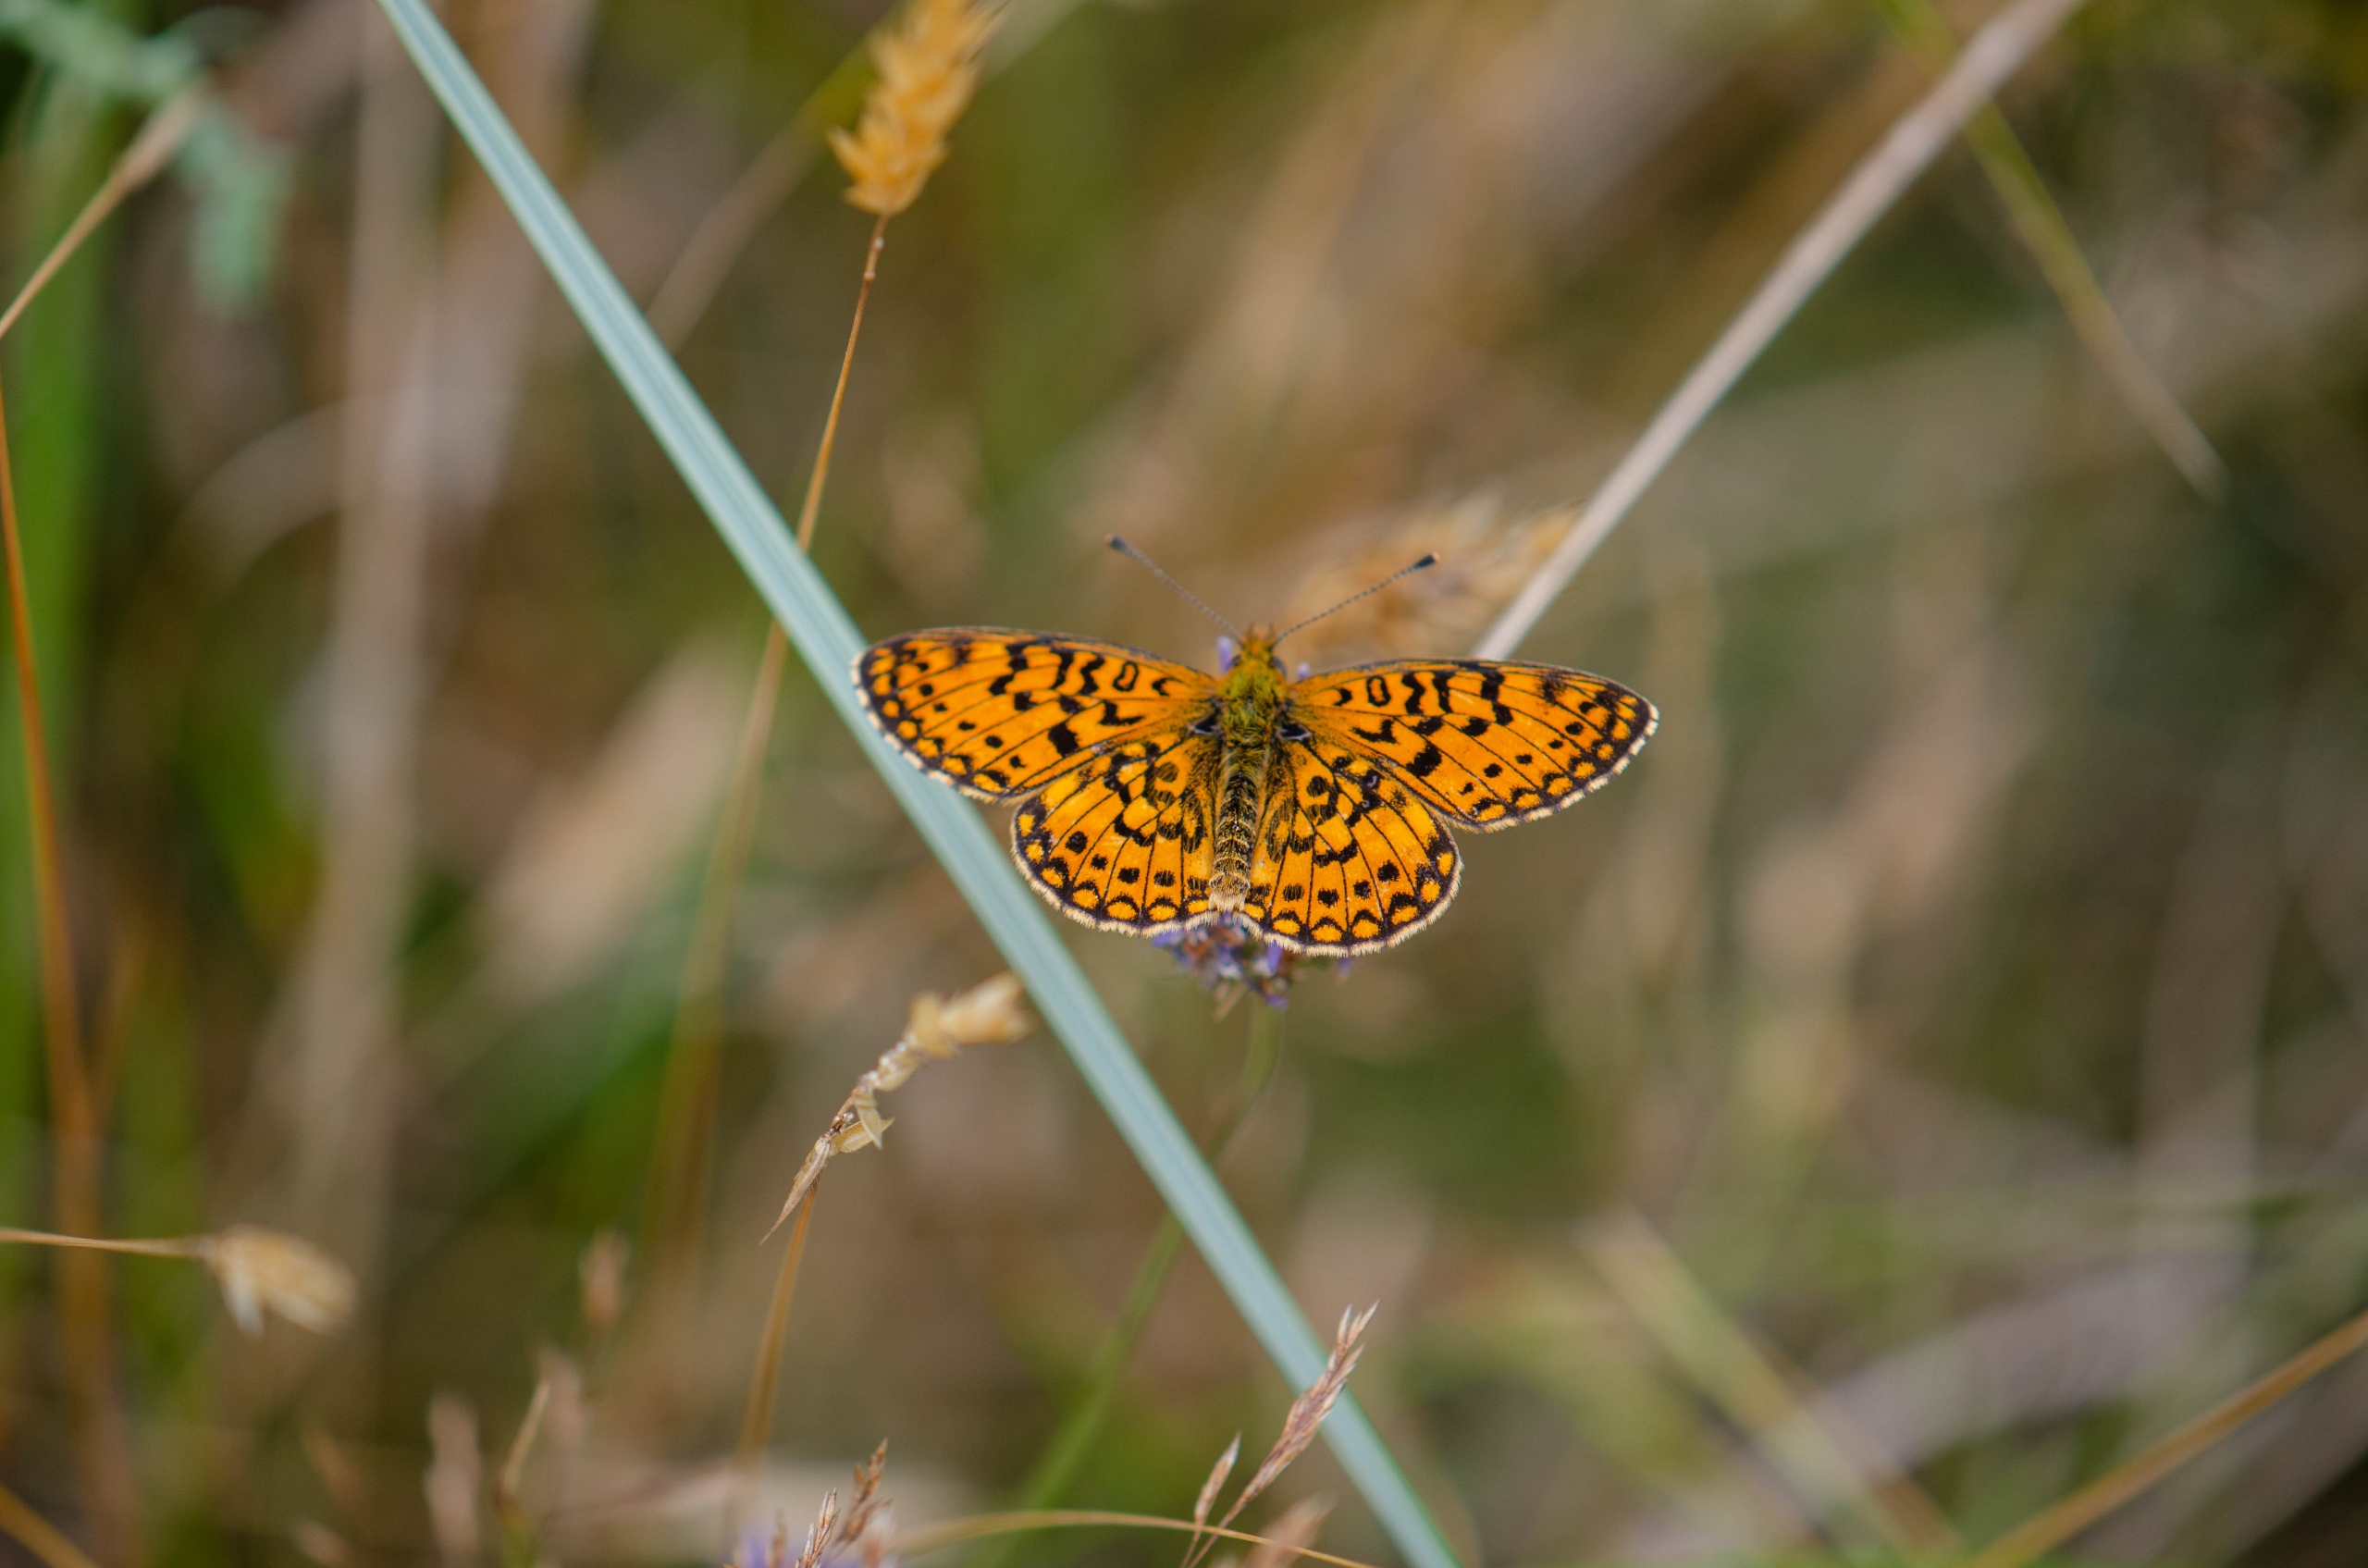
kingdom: Animalia
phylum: Arthropoda
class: Insecta
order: Lepidoptera
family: Nymphalidae
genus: Boloria
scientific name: Boloria selene
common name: Brunlig perlemorsommerfugl
